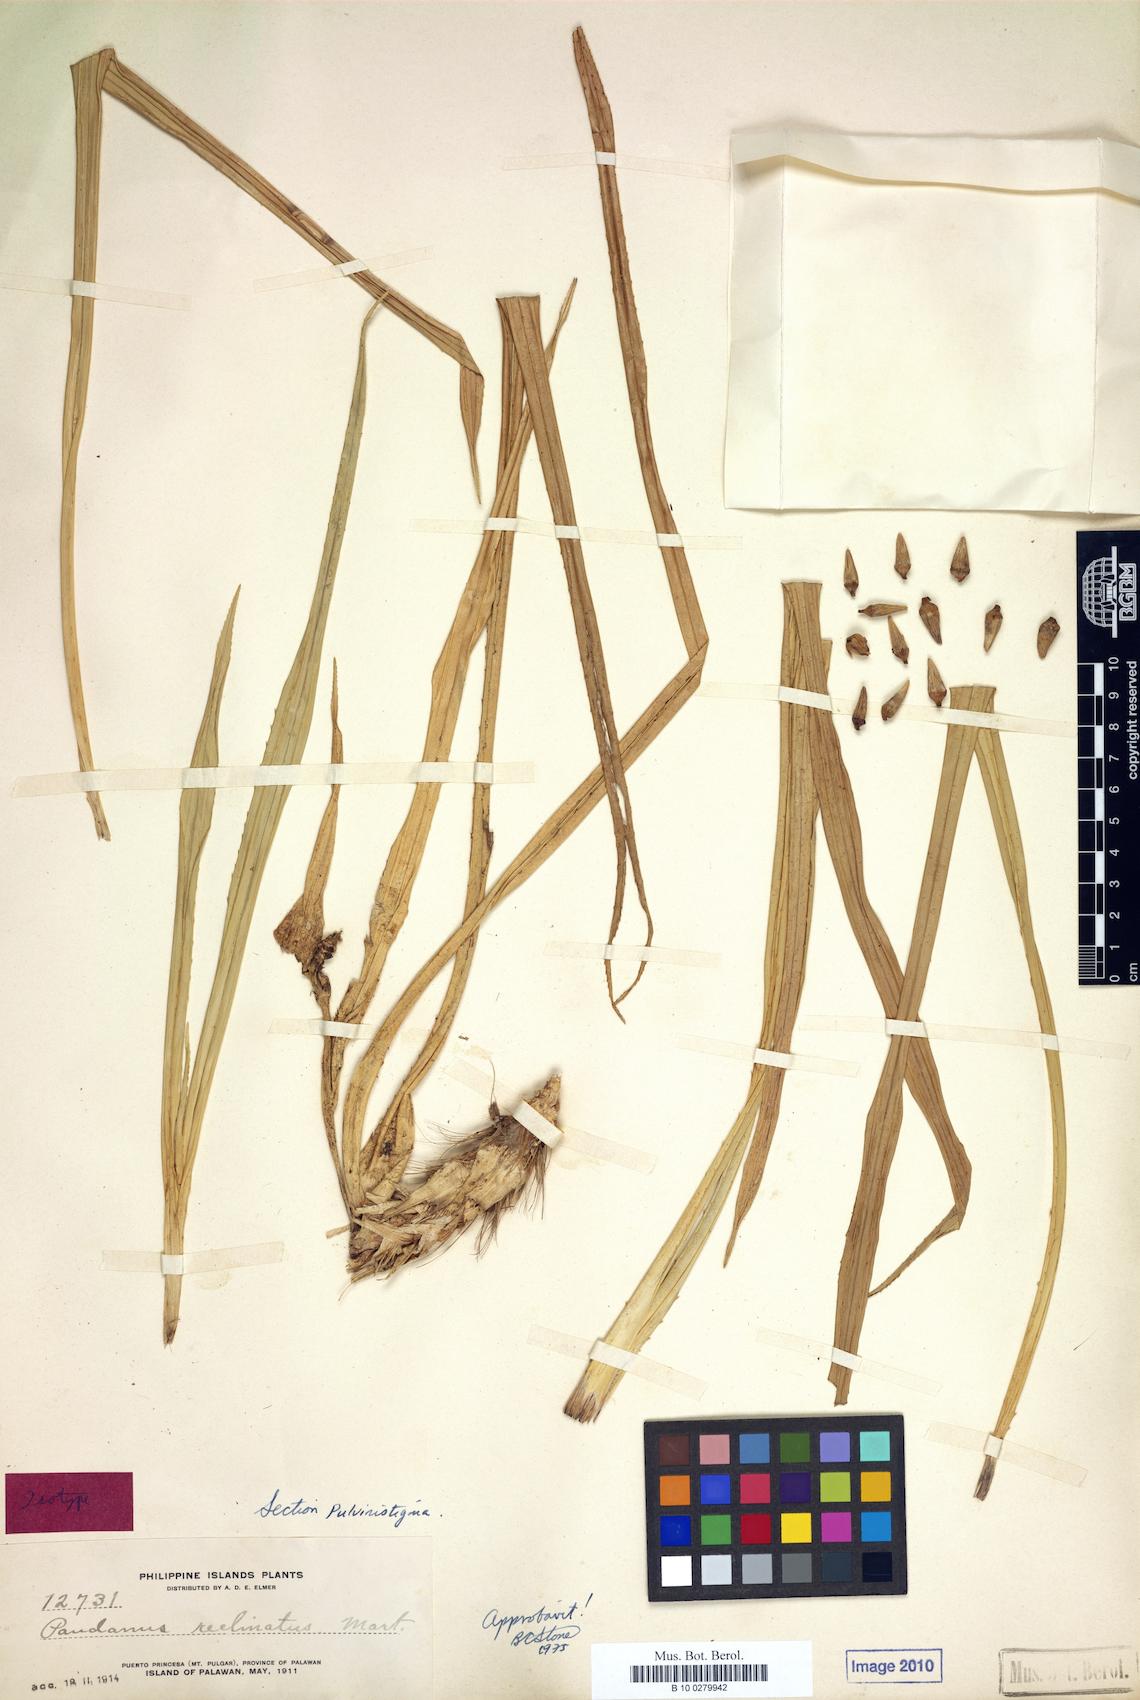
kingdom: Plantae
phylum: Tracheophyta
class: Liliopsida
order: Pandanales
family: Pandanaceae
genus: Pandanus
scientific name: Pandanus reclinatus
